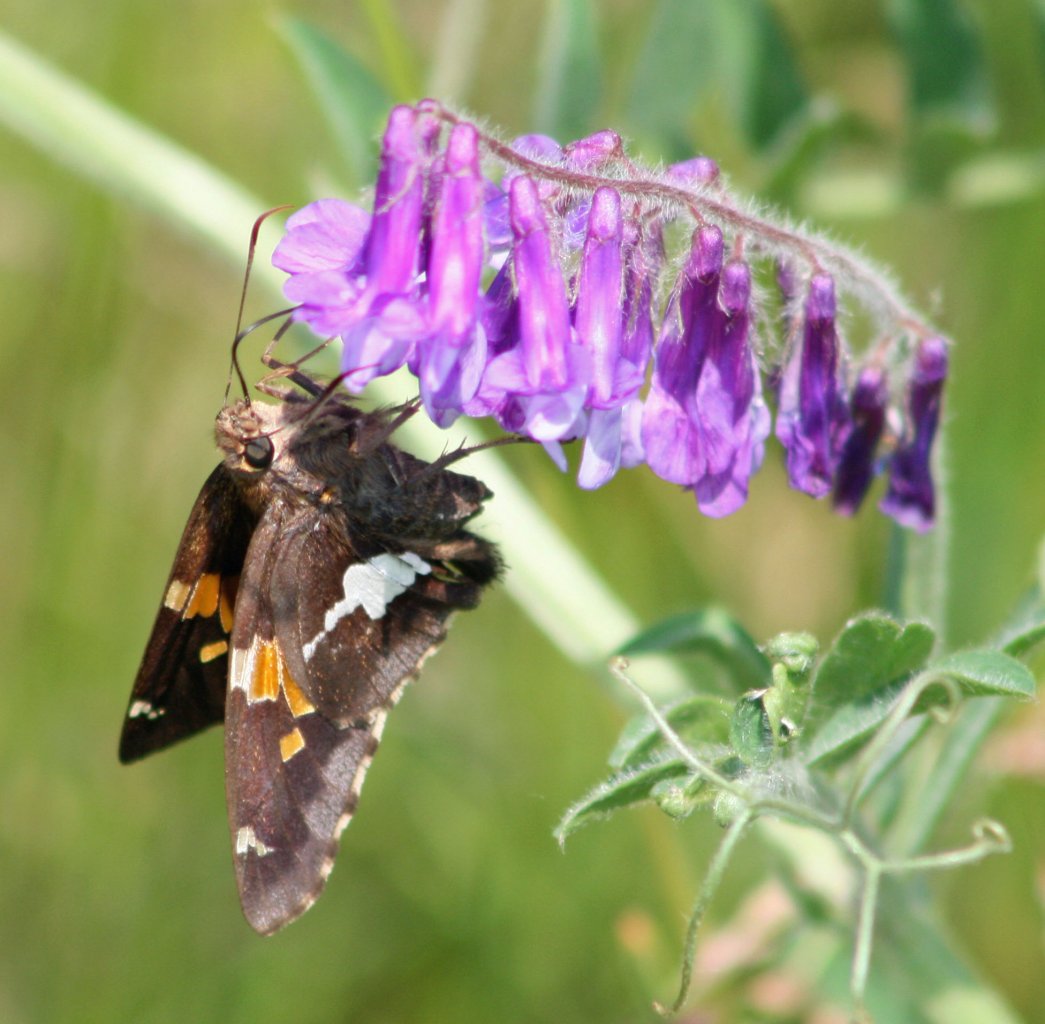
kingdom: Animalia
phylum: Arthropoda
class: Insecta
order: Lepidoptera
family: Hesperiidae
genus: Epargyreus
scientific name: Epargyreus clarus
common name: Silver-spotted Skipper
